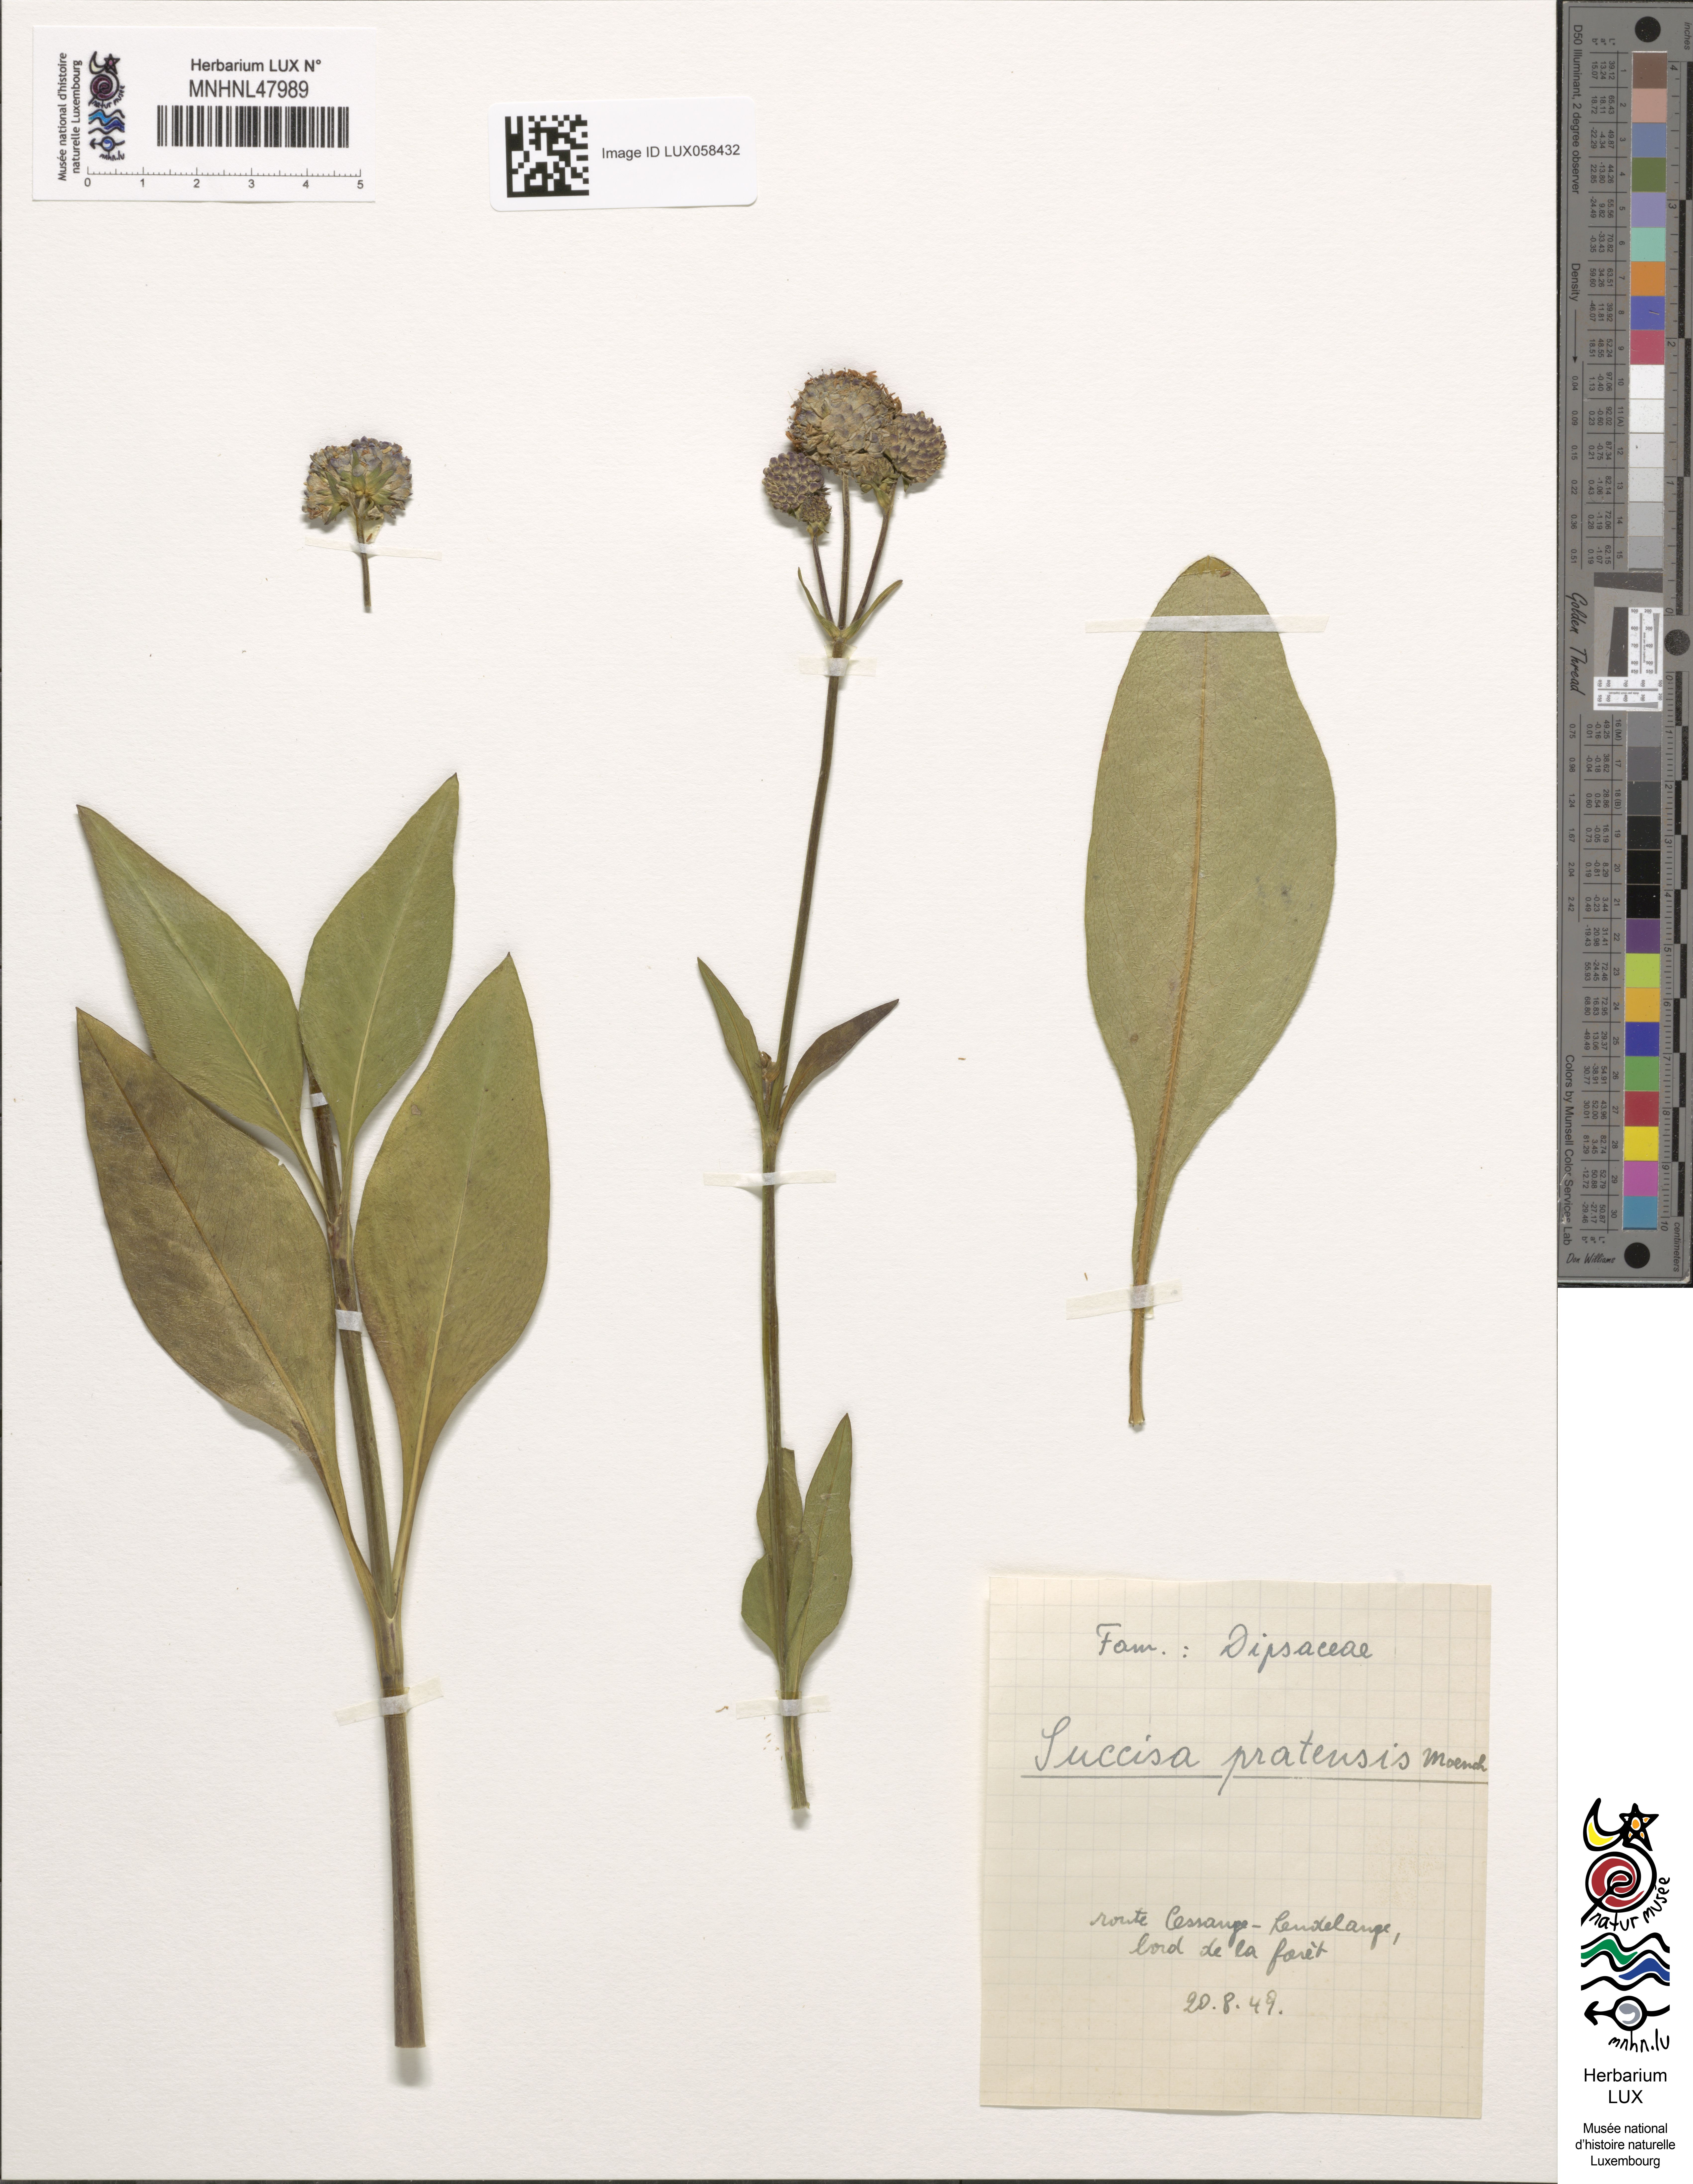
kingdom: Plantae
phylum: Tracheophyta
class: Magnoliopsida
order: Dipsacales
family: Caprifoliaceae
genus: Succisa
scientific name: Succisa pratensis
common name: Devil's-bit
